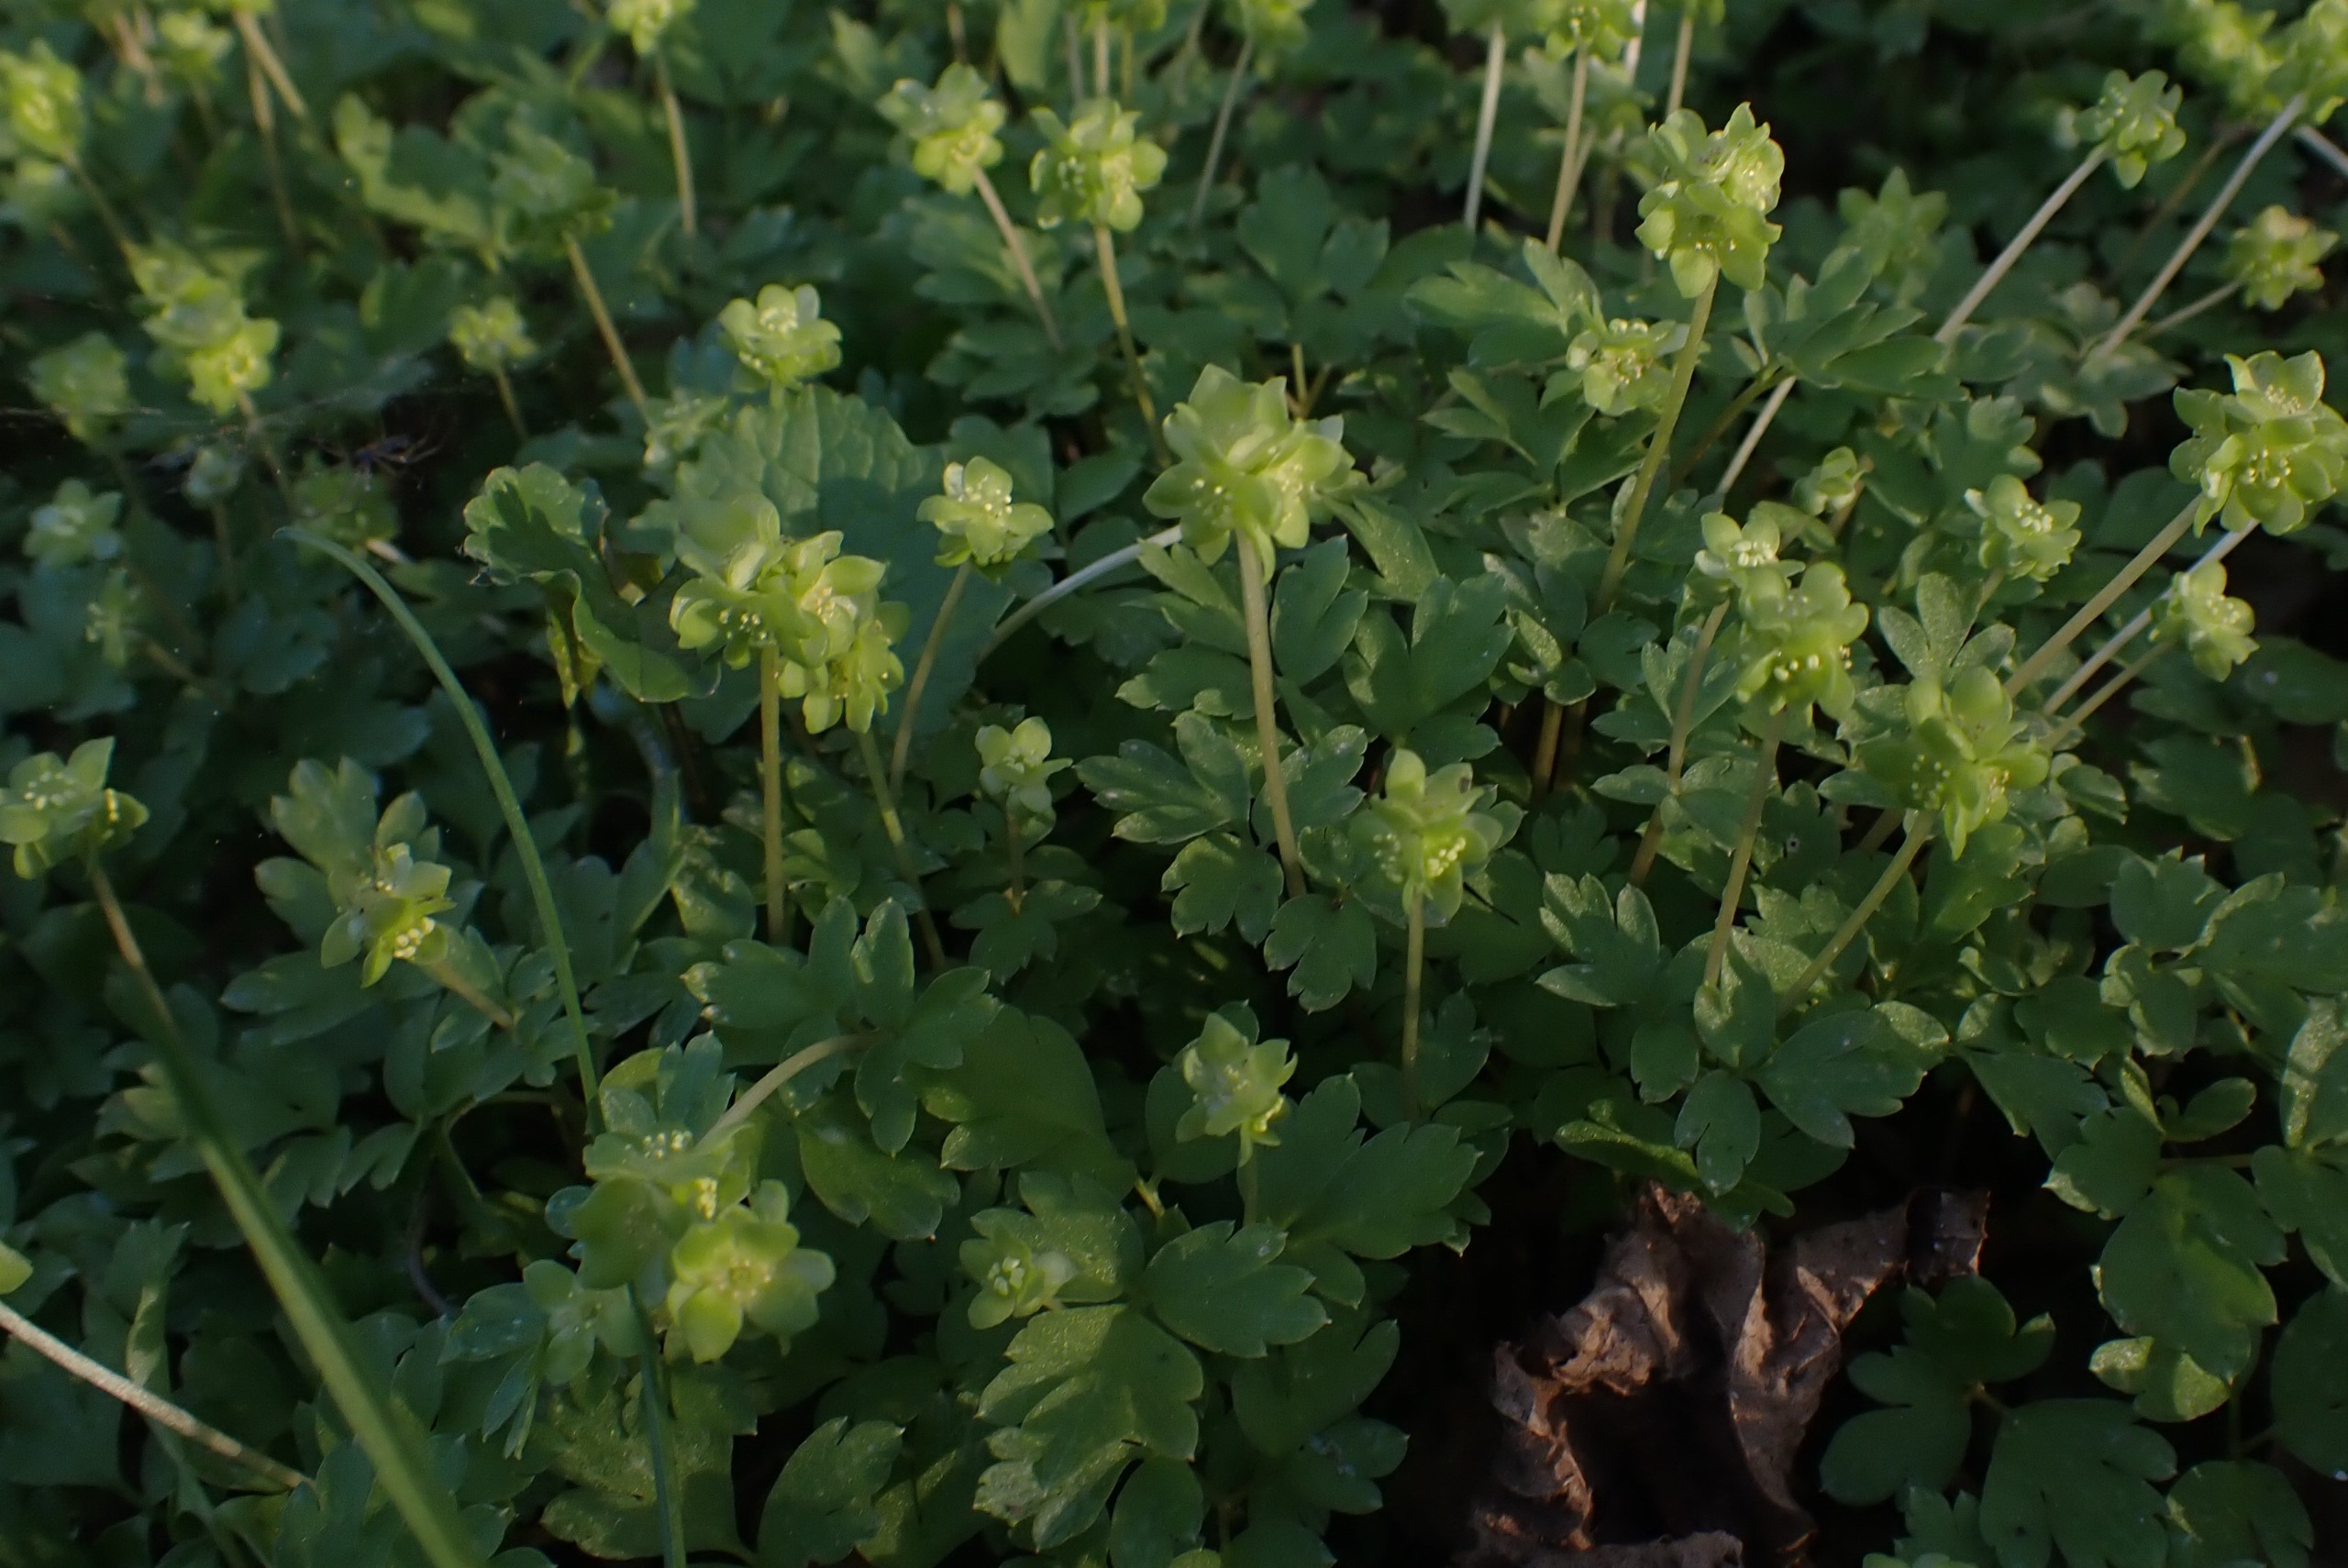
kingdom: Plantae
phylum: Tracheophyta
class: Magnoliopsida
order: Dipsacales
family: Viburnaceae
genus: Adoxa
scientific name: Adoxa moschatellina
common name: Desmerurt
